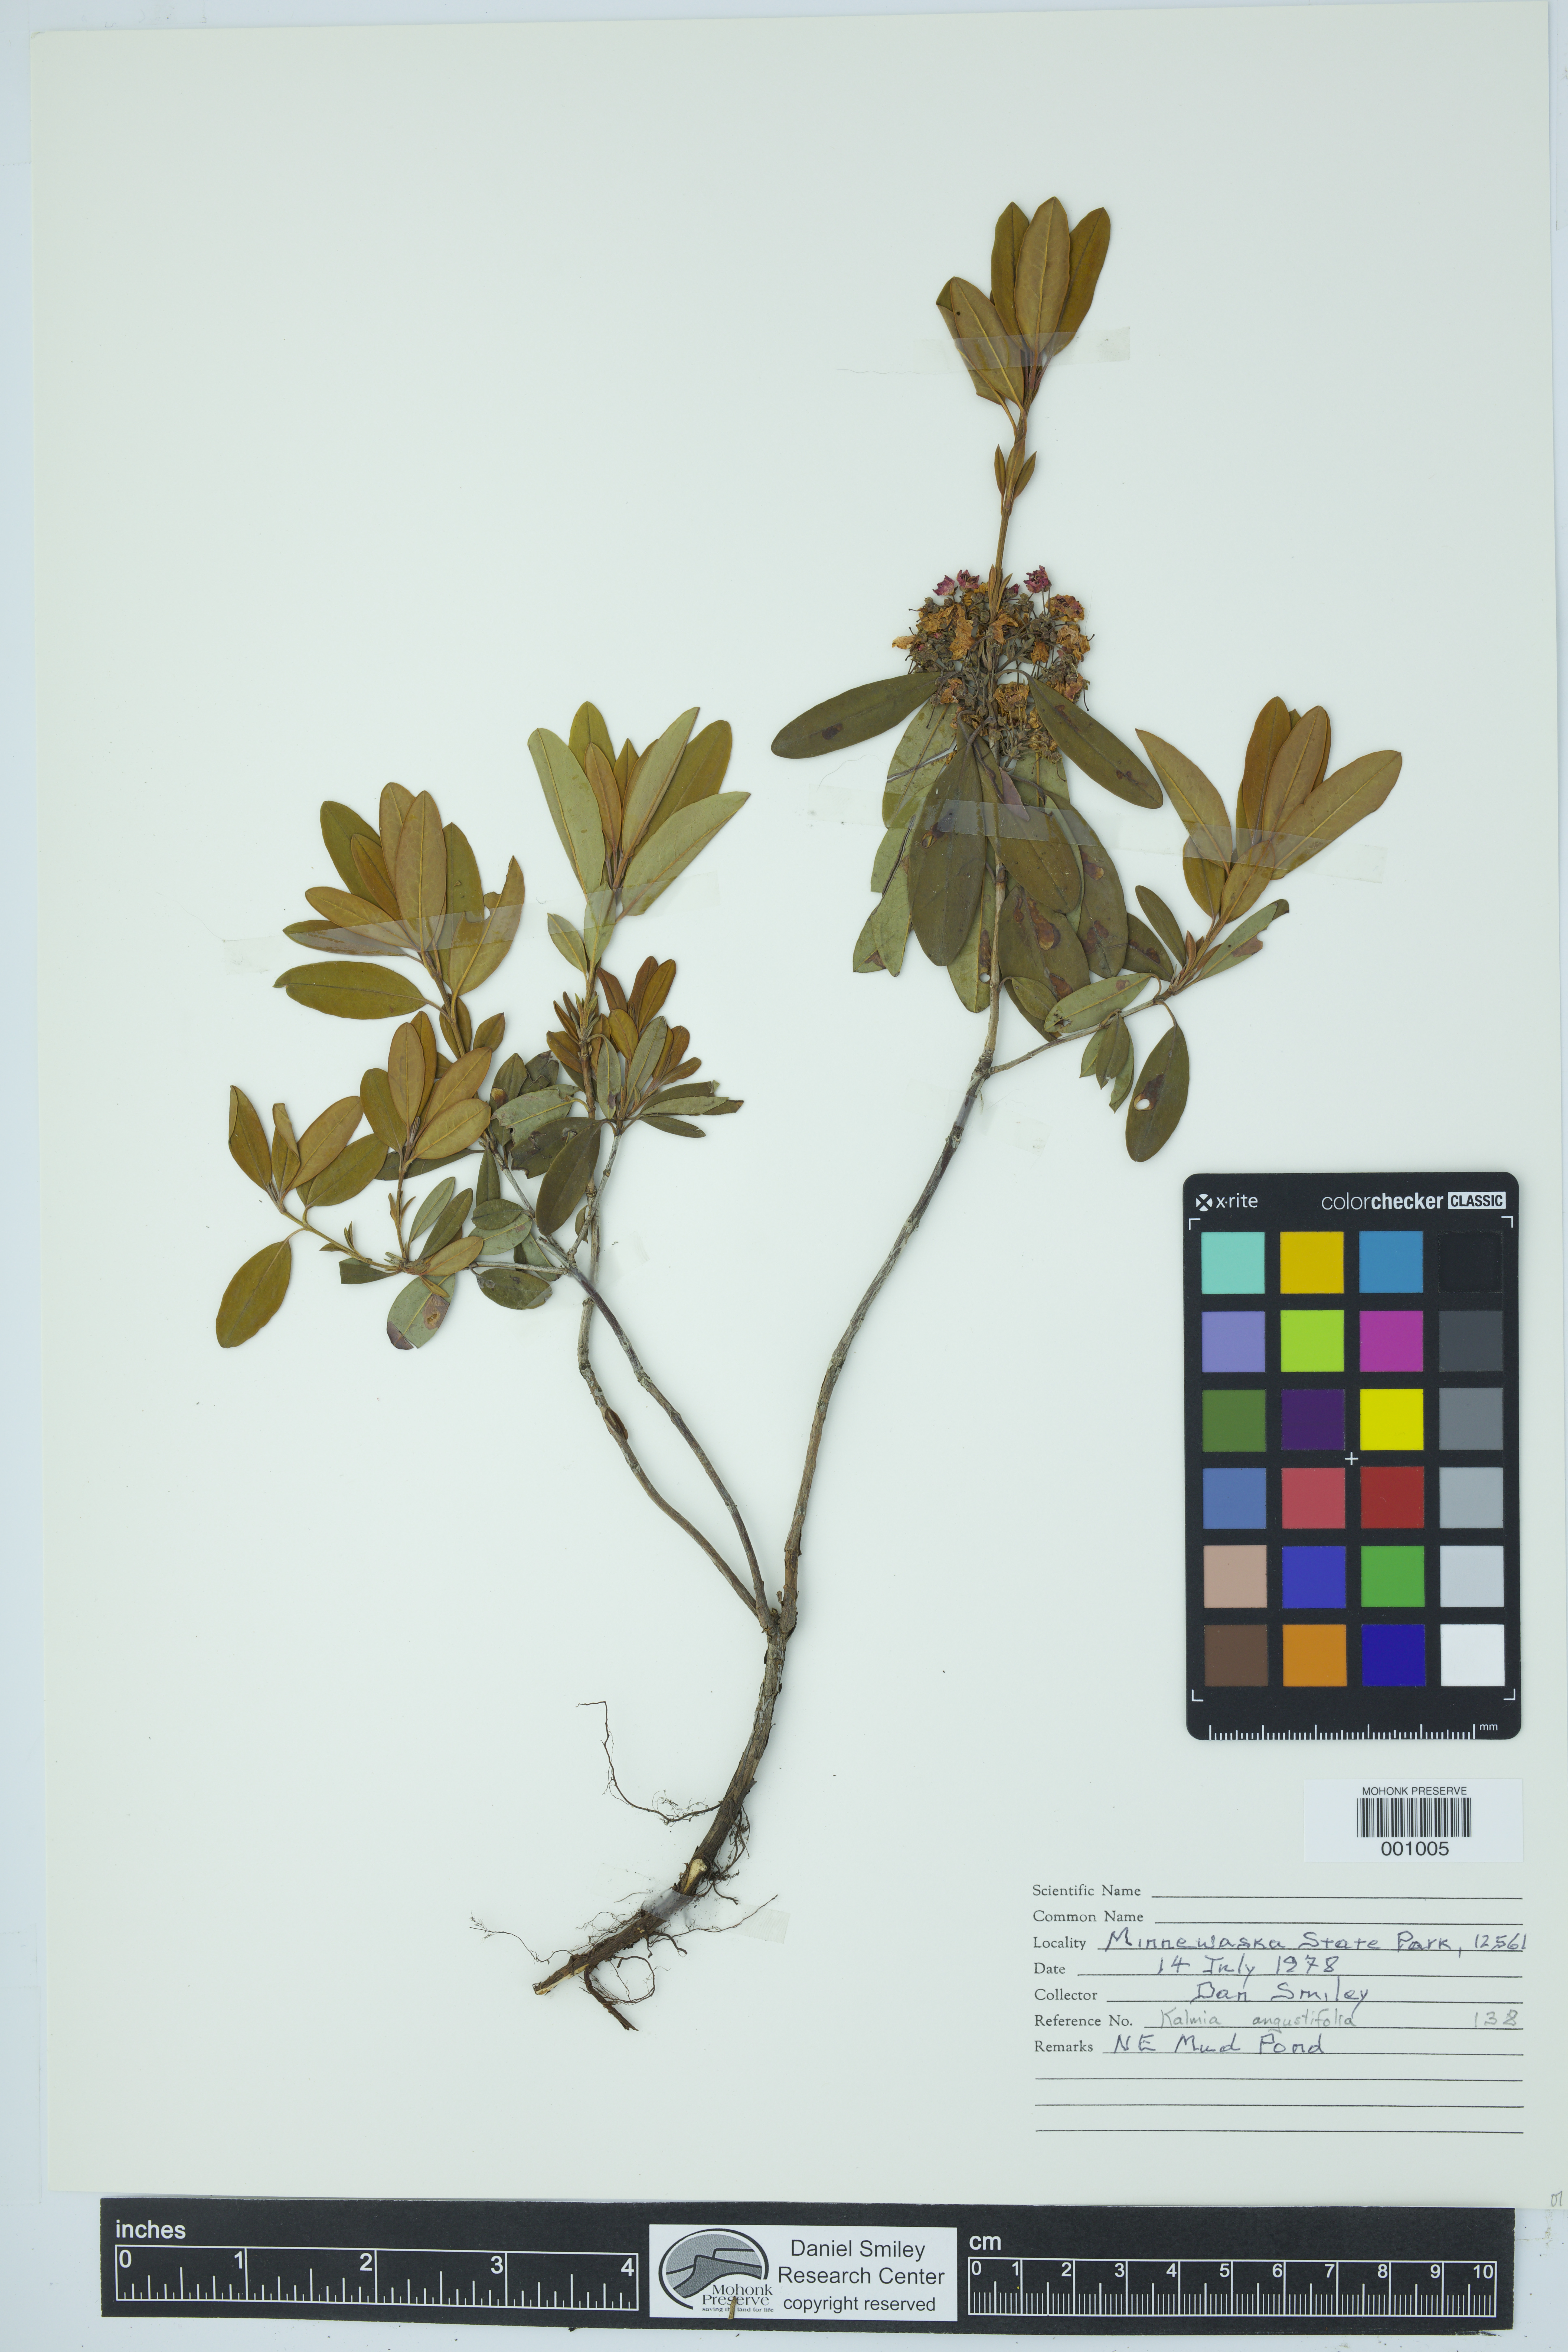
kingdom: Plantae
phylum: Tracheophyta
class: Magnoliopsida
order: Ericales
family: Ericaceae
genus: Kalmia
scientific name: Kalmia angustifolia
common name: Sheep-laurel
